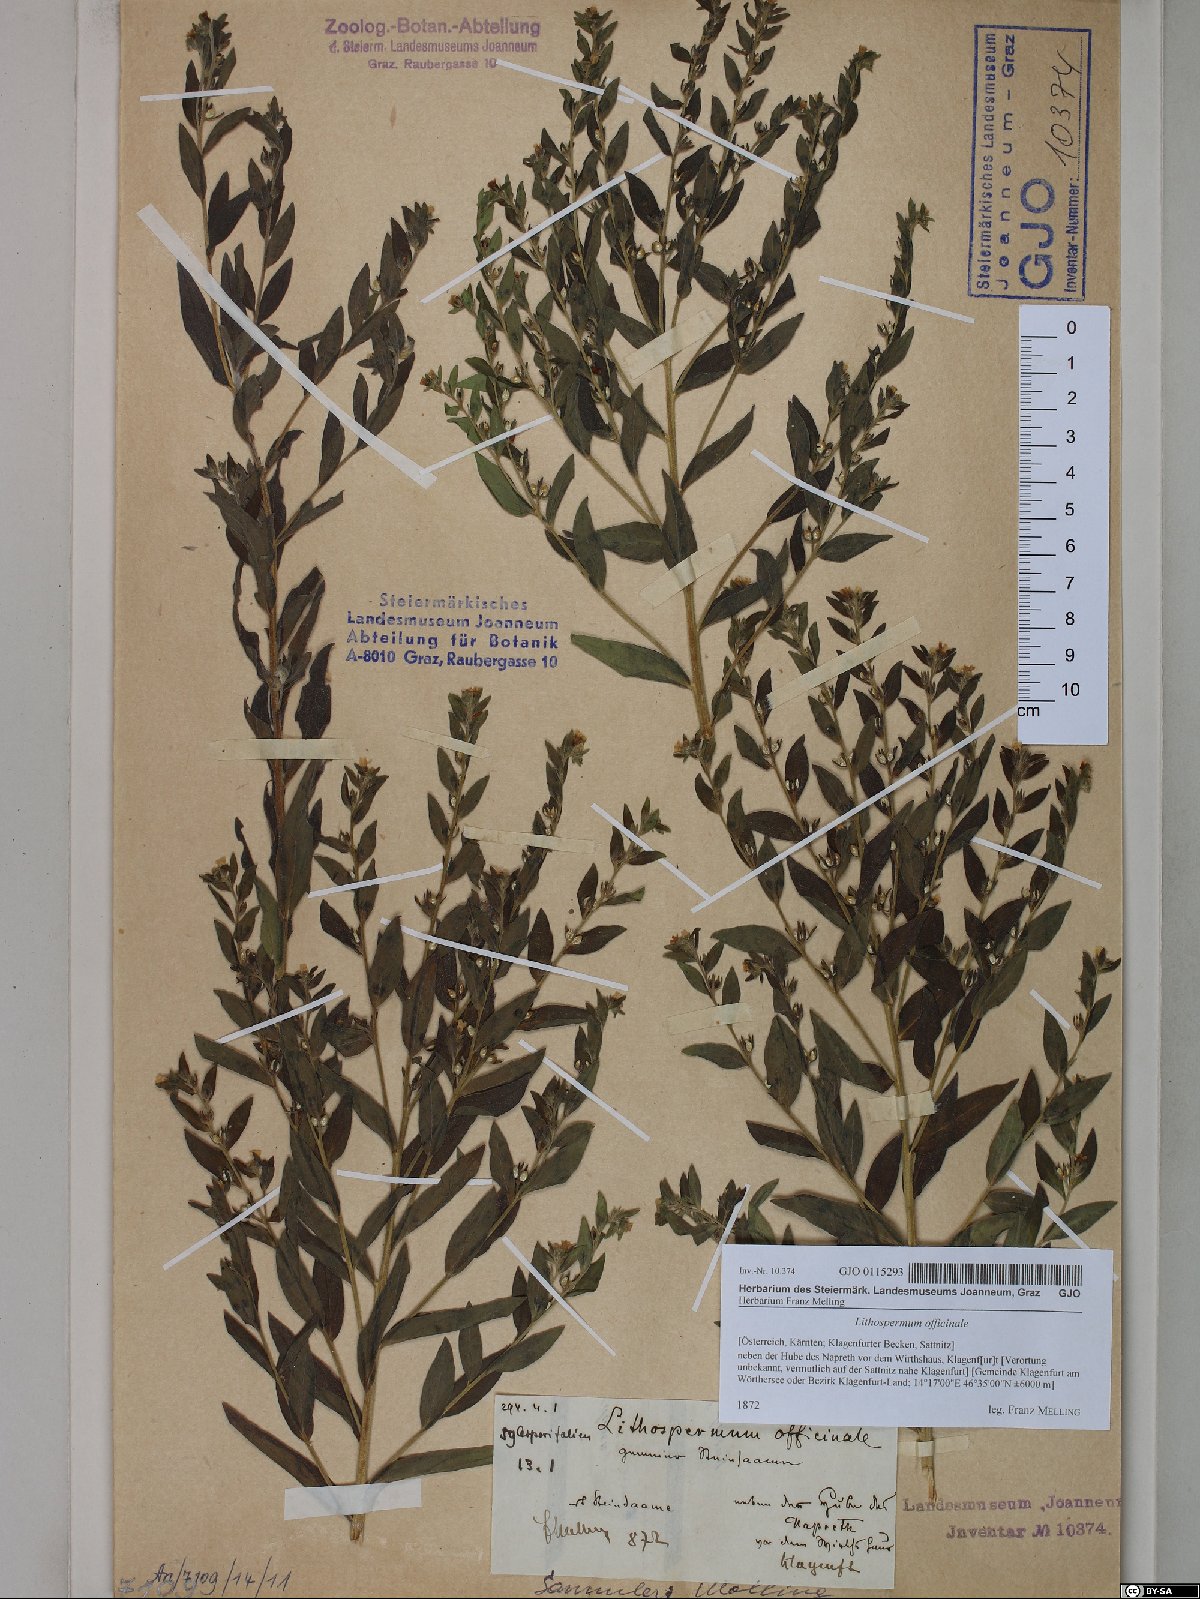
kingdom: Plantae
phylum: Tracheophyta
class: Magnoliopsida
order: Boraginales
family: Boraginaceae
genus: Lithospermum
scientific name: Lithospermum officinale
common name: Common gromwell
